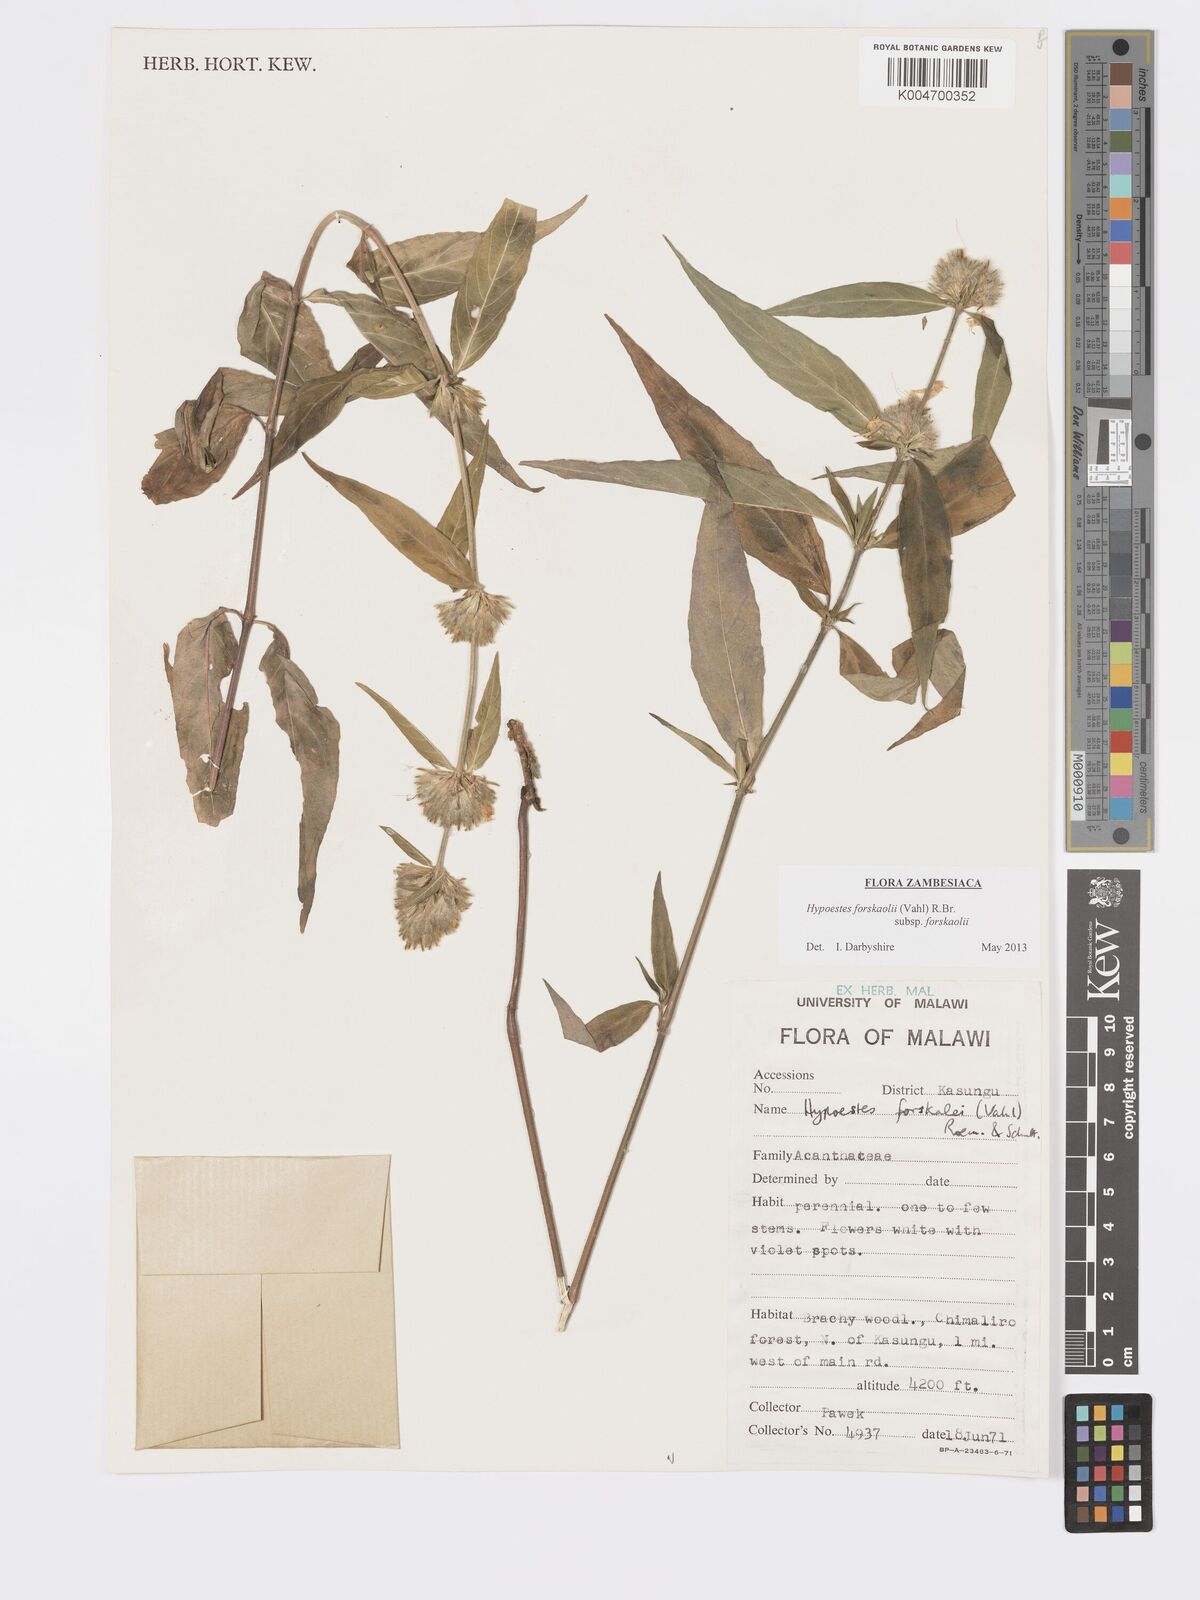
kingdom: Plantae
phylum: Tracheophyta
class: Magnoliopsida
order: Lamiales
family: Acanthaceae
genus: Hypoestes
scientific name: Hypoestes forskaolii
